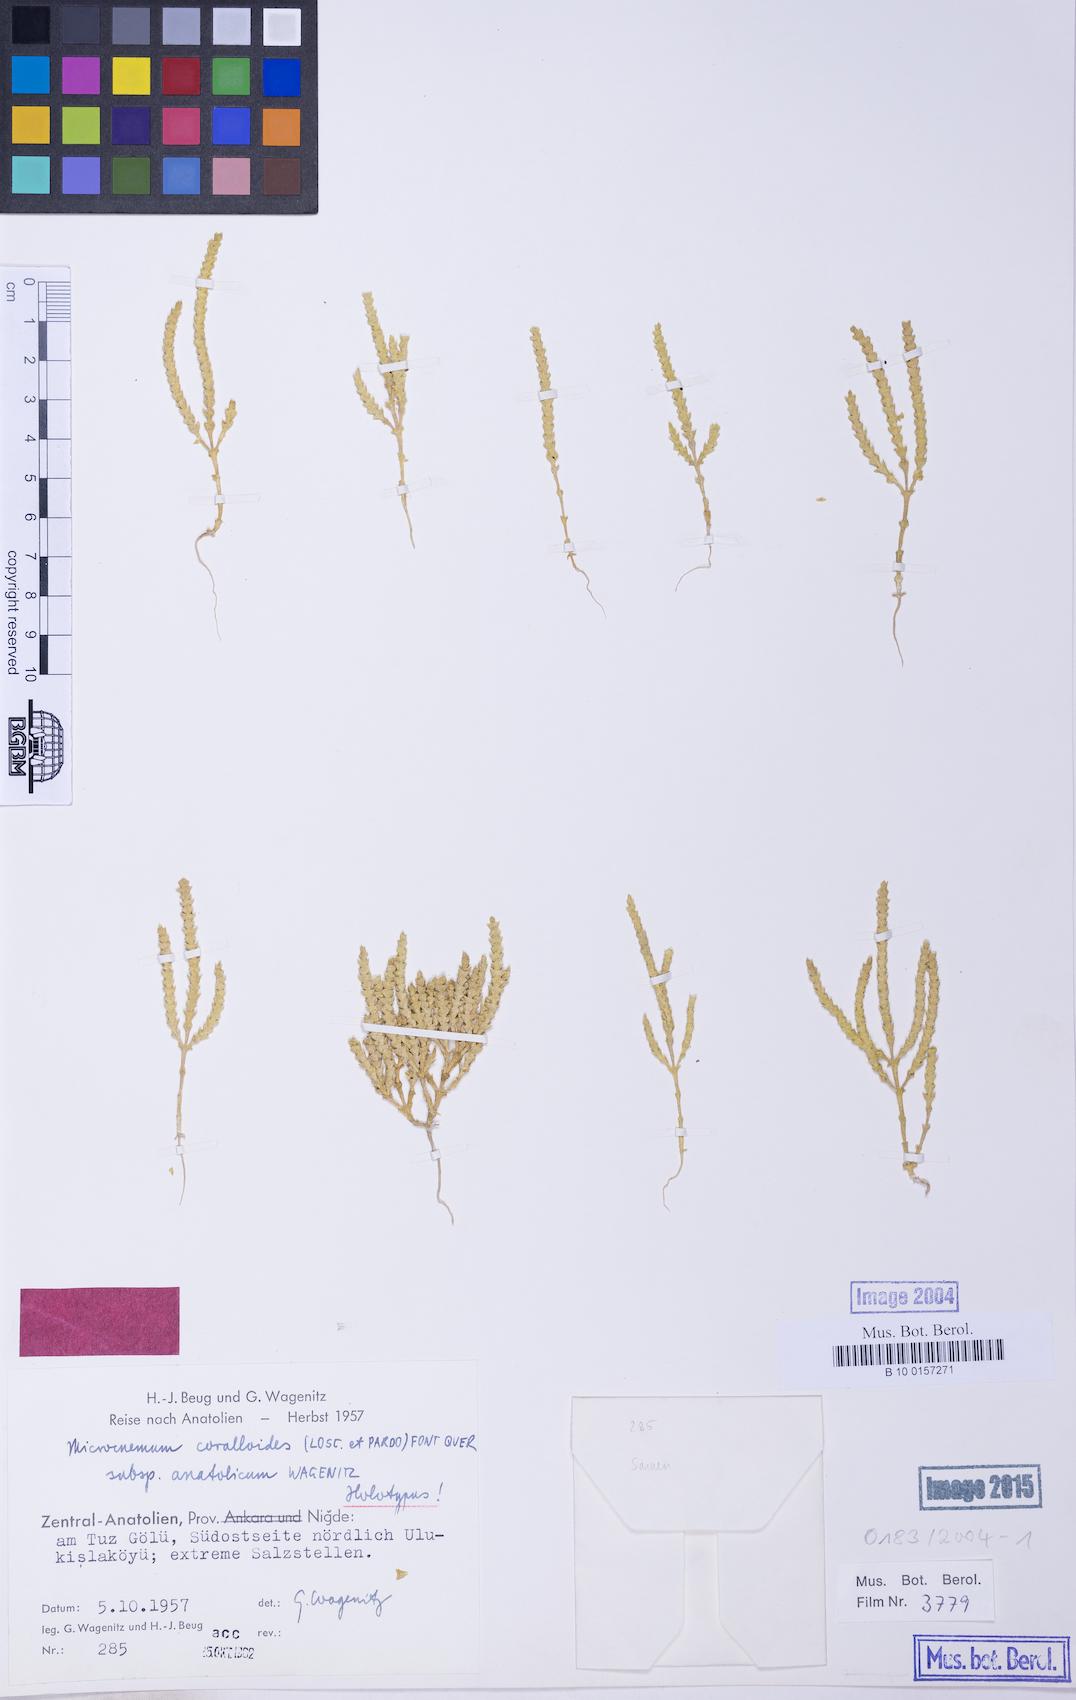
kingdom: Plantae
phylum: Tracheophyta
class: Magnoliopsida
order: Caryophyllales
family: Amaranthaceae
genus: Microcnemum
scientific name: Microcnemum coralloides
